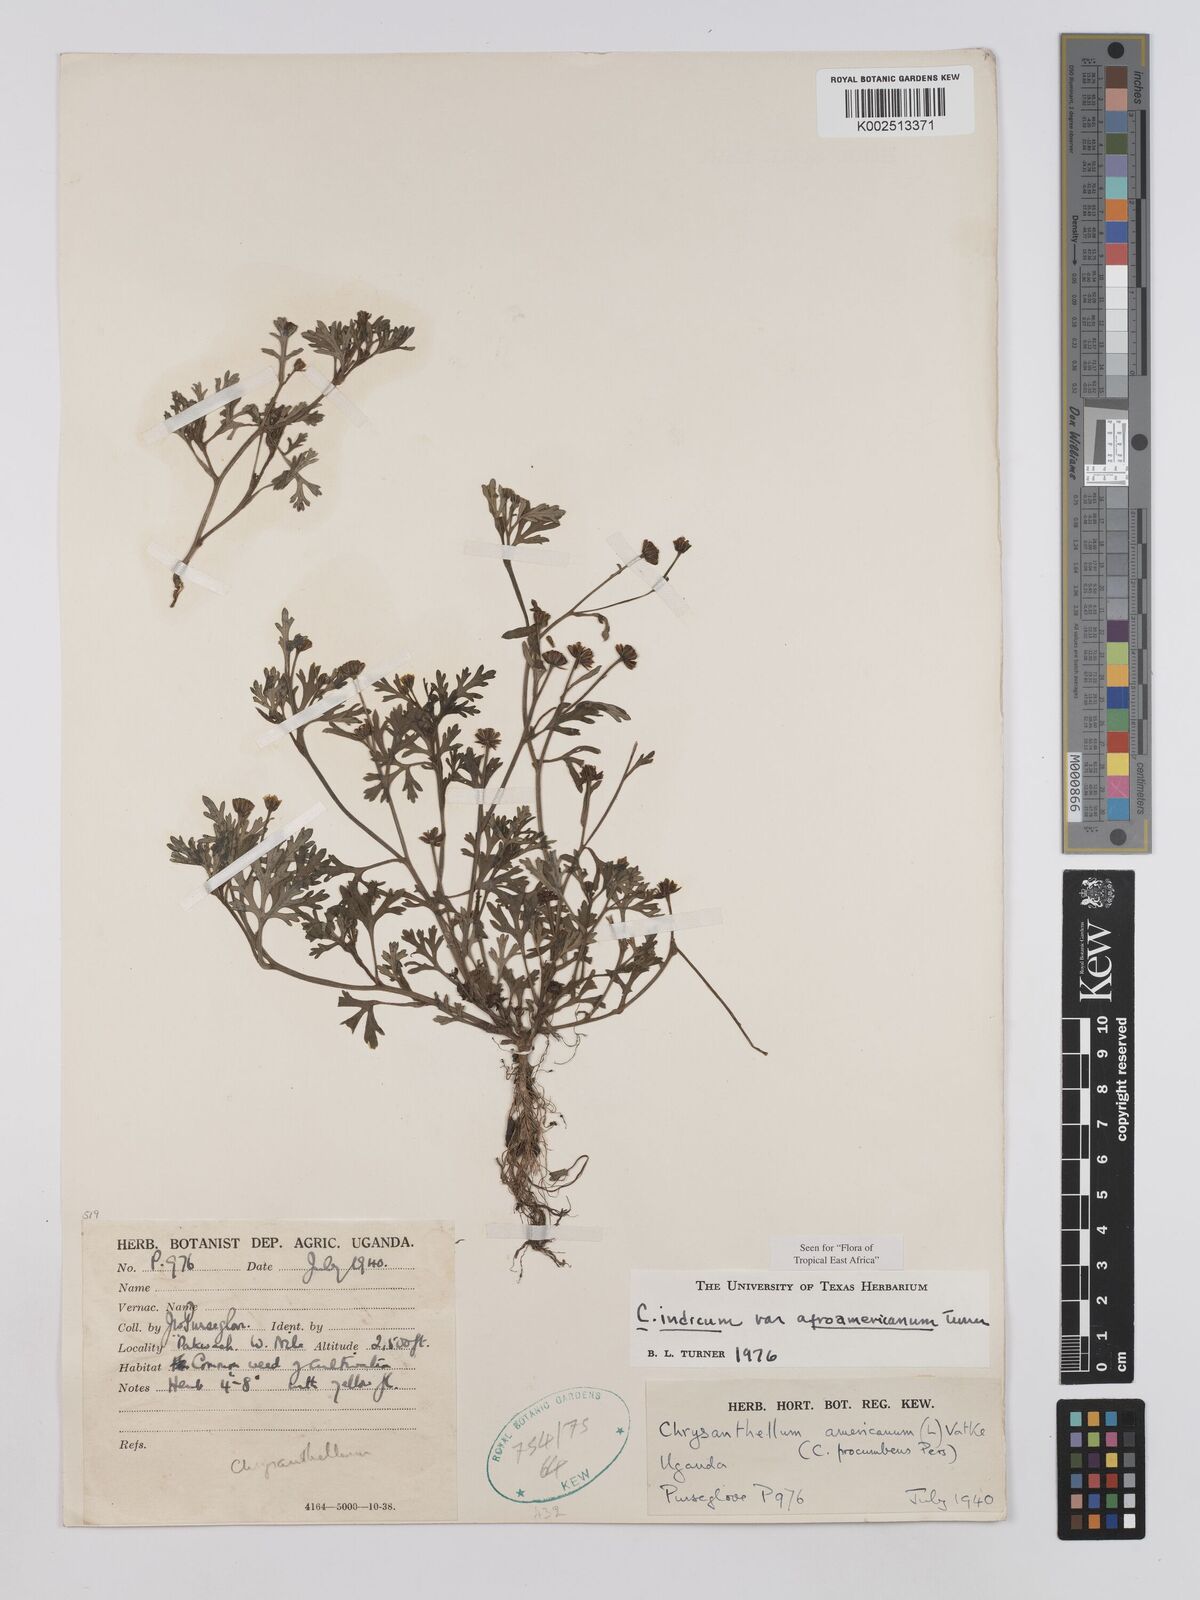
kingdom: Plantae
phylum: Tracheophyta
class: Magnoliopsida
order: Asterales
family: Asteraceae
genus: Chrysanthellum
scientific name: Chrysanthellum indicum
